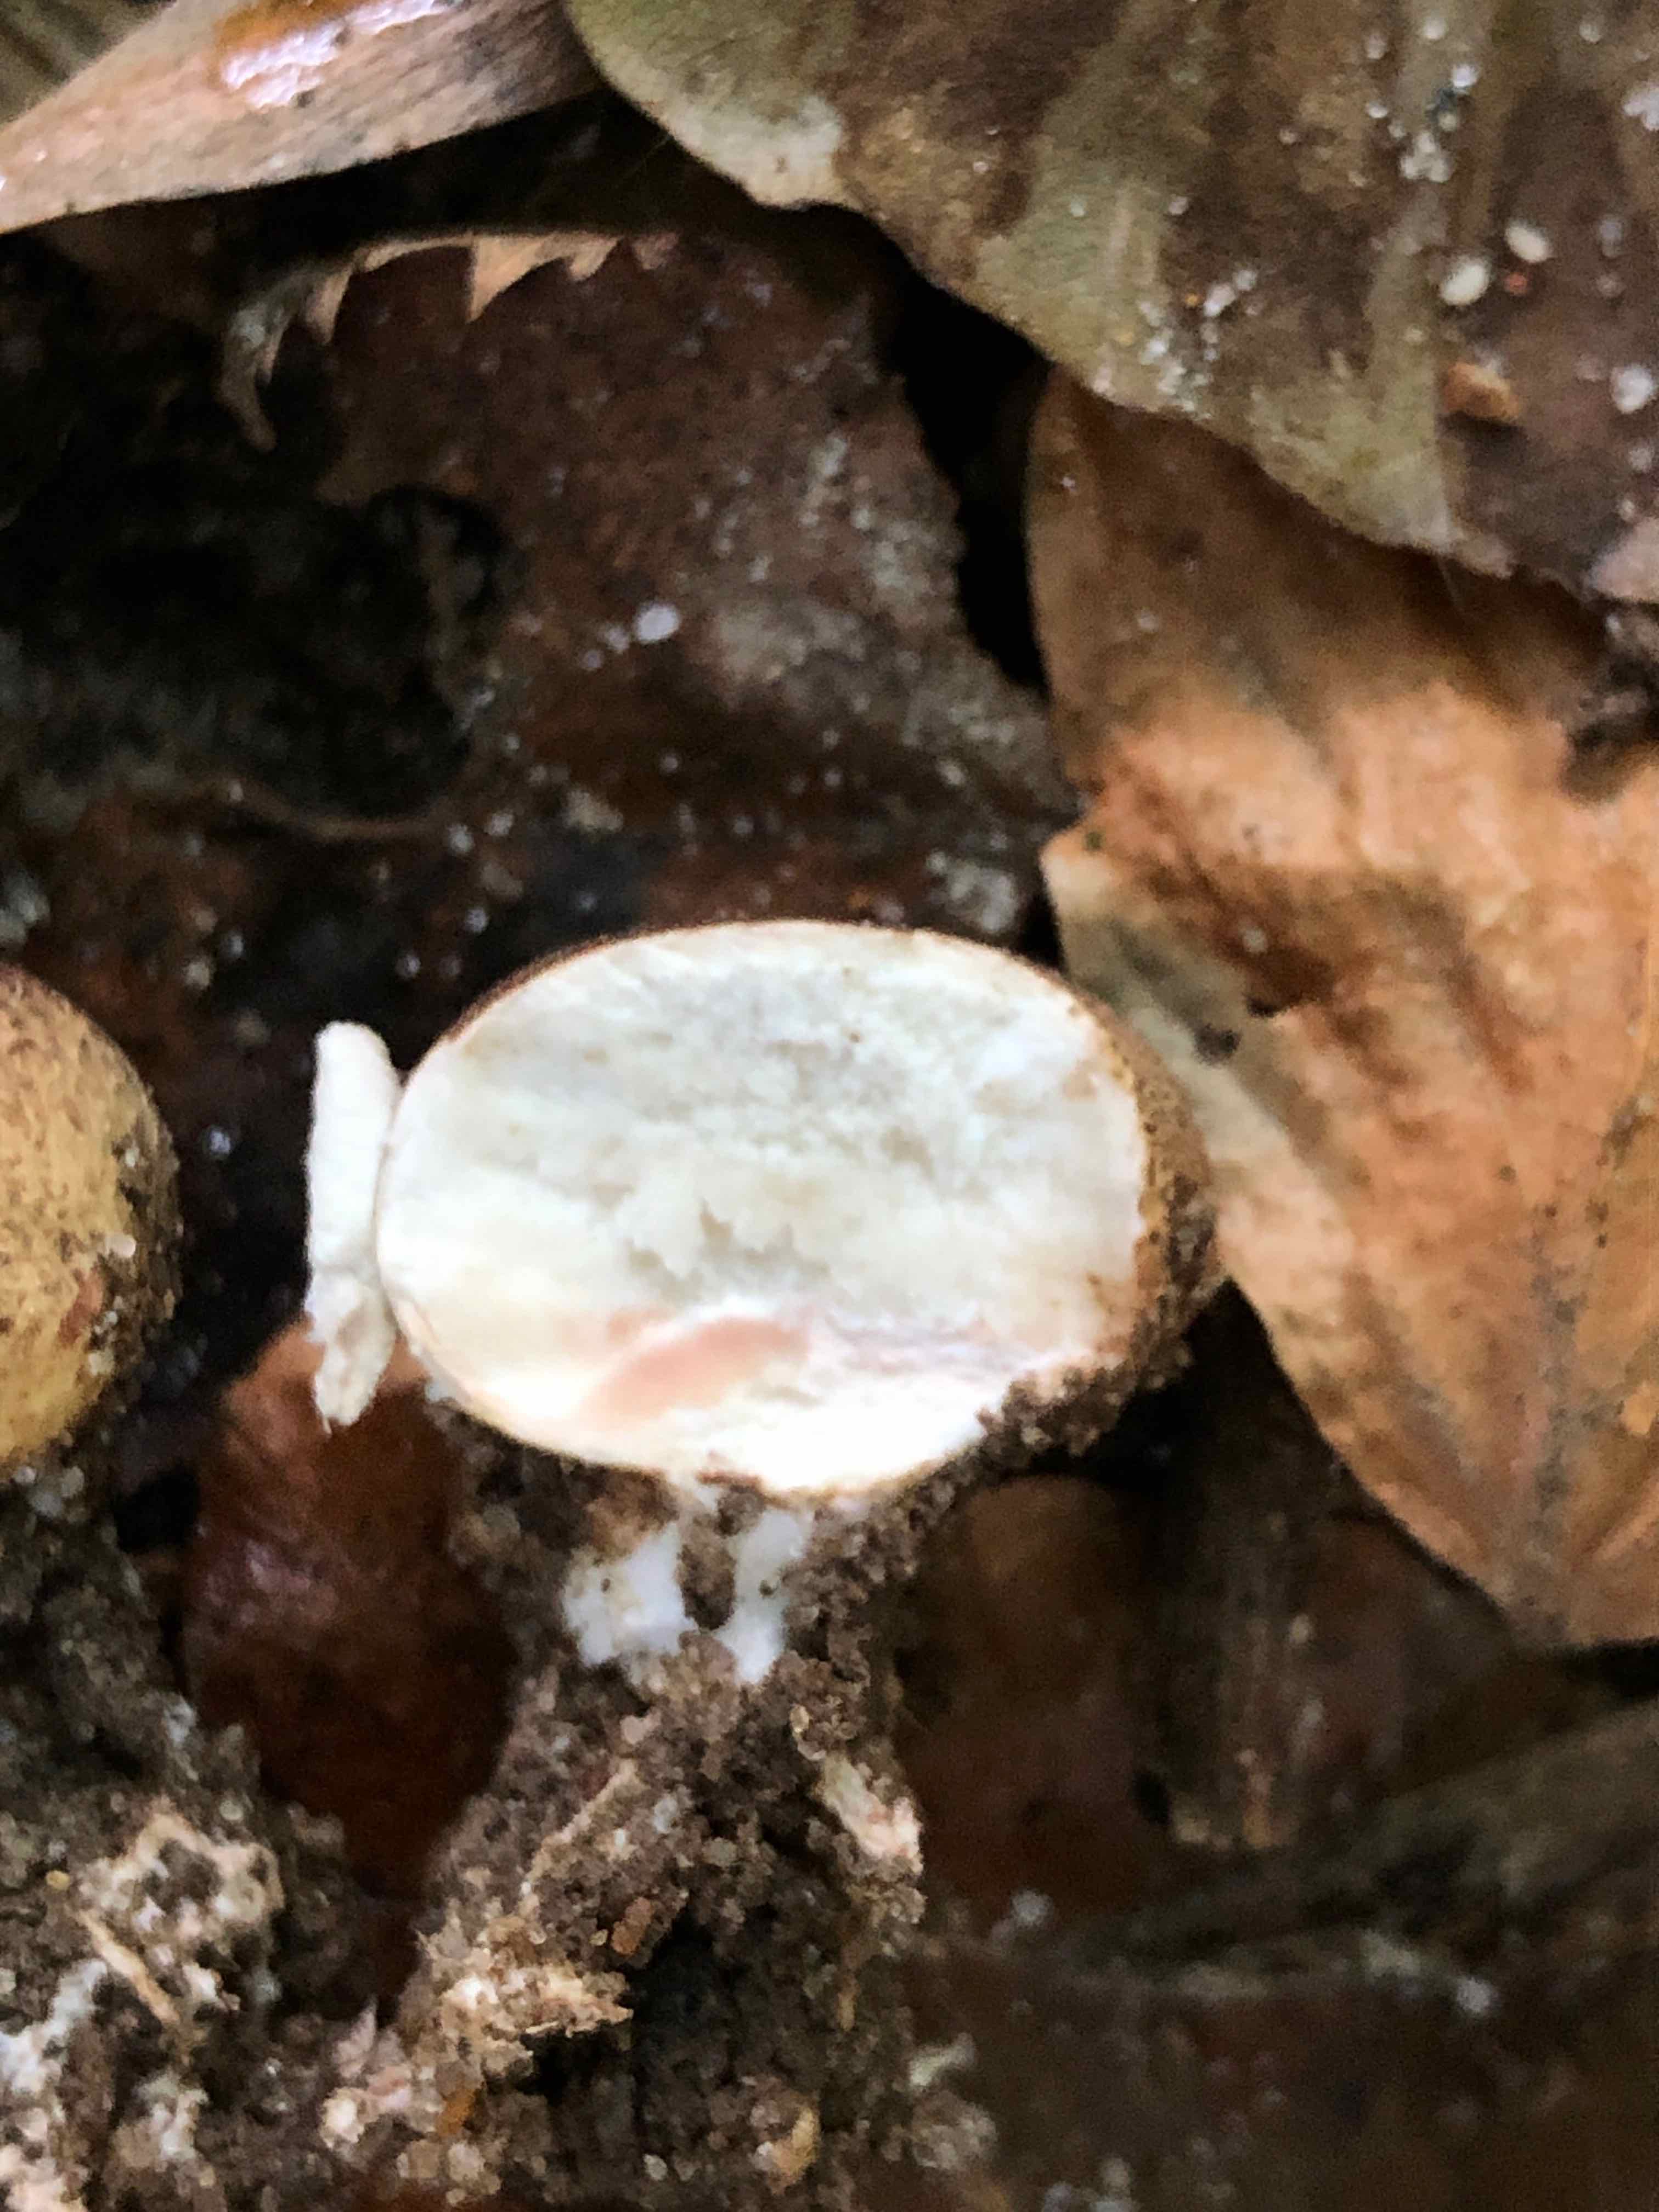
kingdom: Fungi
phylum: Basidiomycota
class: Agaricomycetes
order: Boletales
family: Sclerodermataceae
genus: Scleroderma
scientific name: Scleroderma verrucosum
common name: stilket bruskbold
